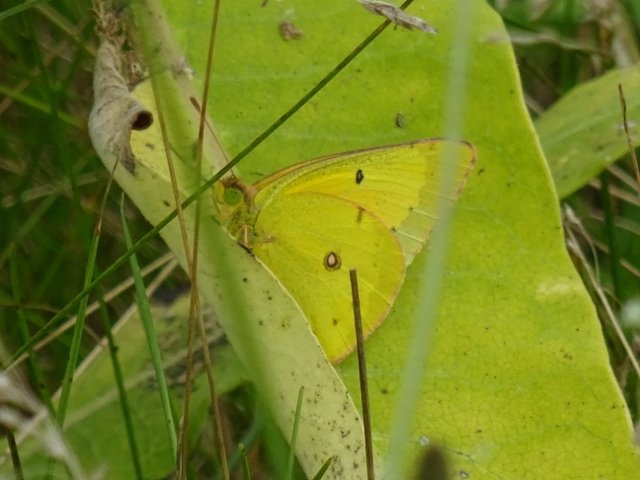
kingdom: Animalia
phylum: Arthropoda
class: Insecta
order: Lepidoptera
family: Pieridae
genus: Colias
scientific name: Colias philodice
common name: Clouded Sulphur
